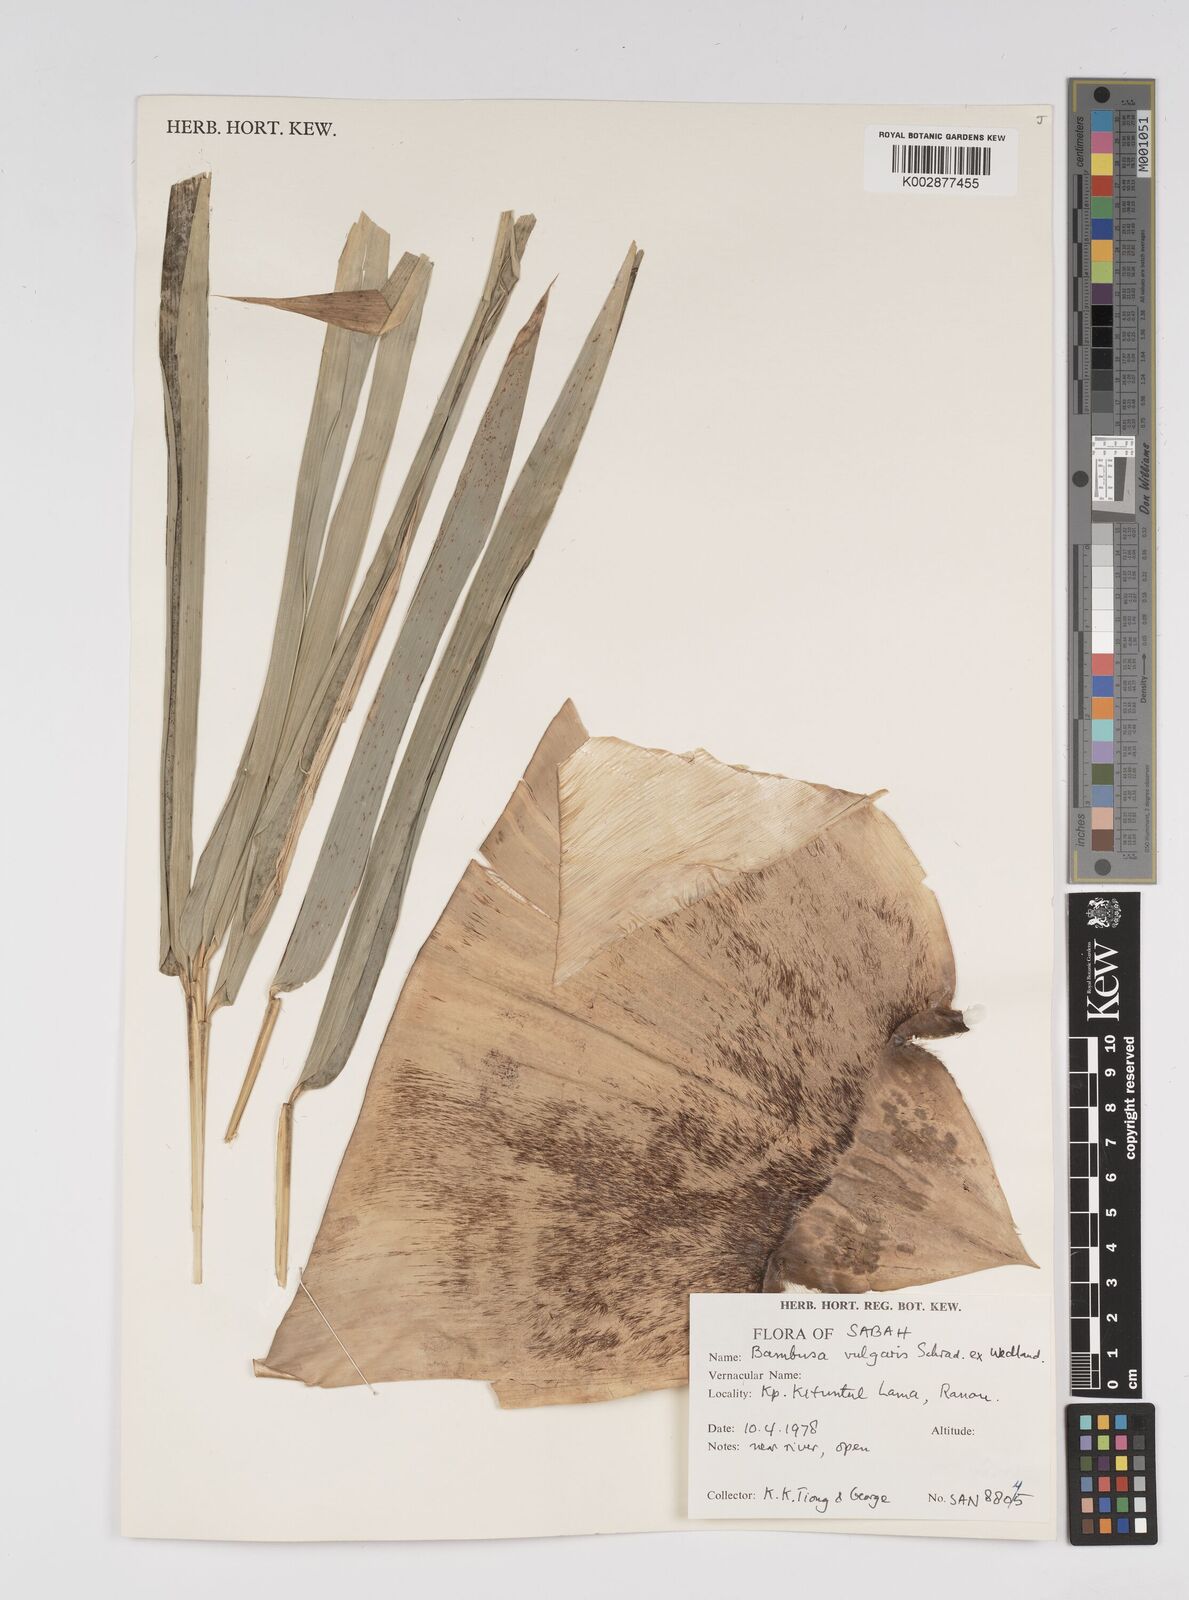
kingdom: Plantae
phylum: Tracheophyta
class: Liliopsida
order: Poales
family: Poaceae
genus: Bambusa
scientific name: Bambusa vulgaris
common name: Common bamboo
